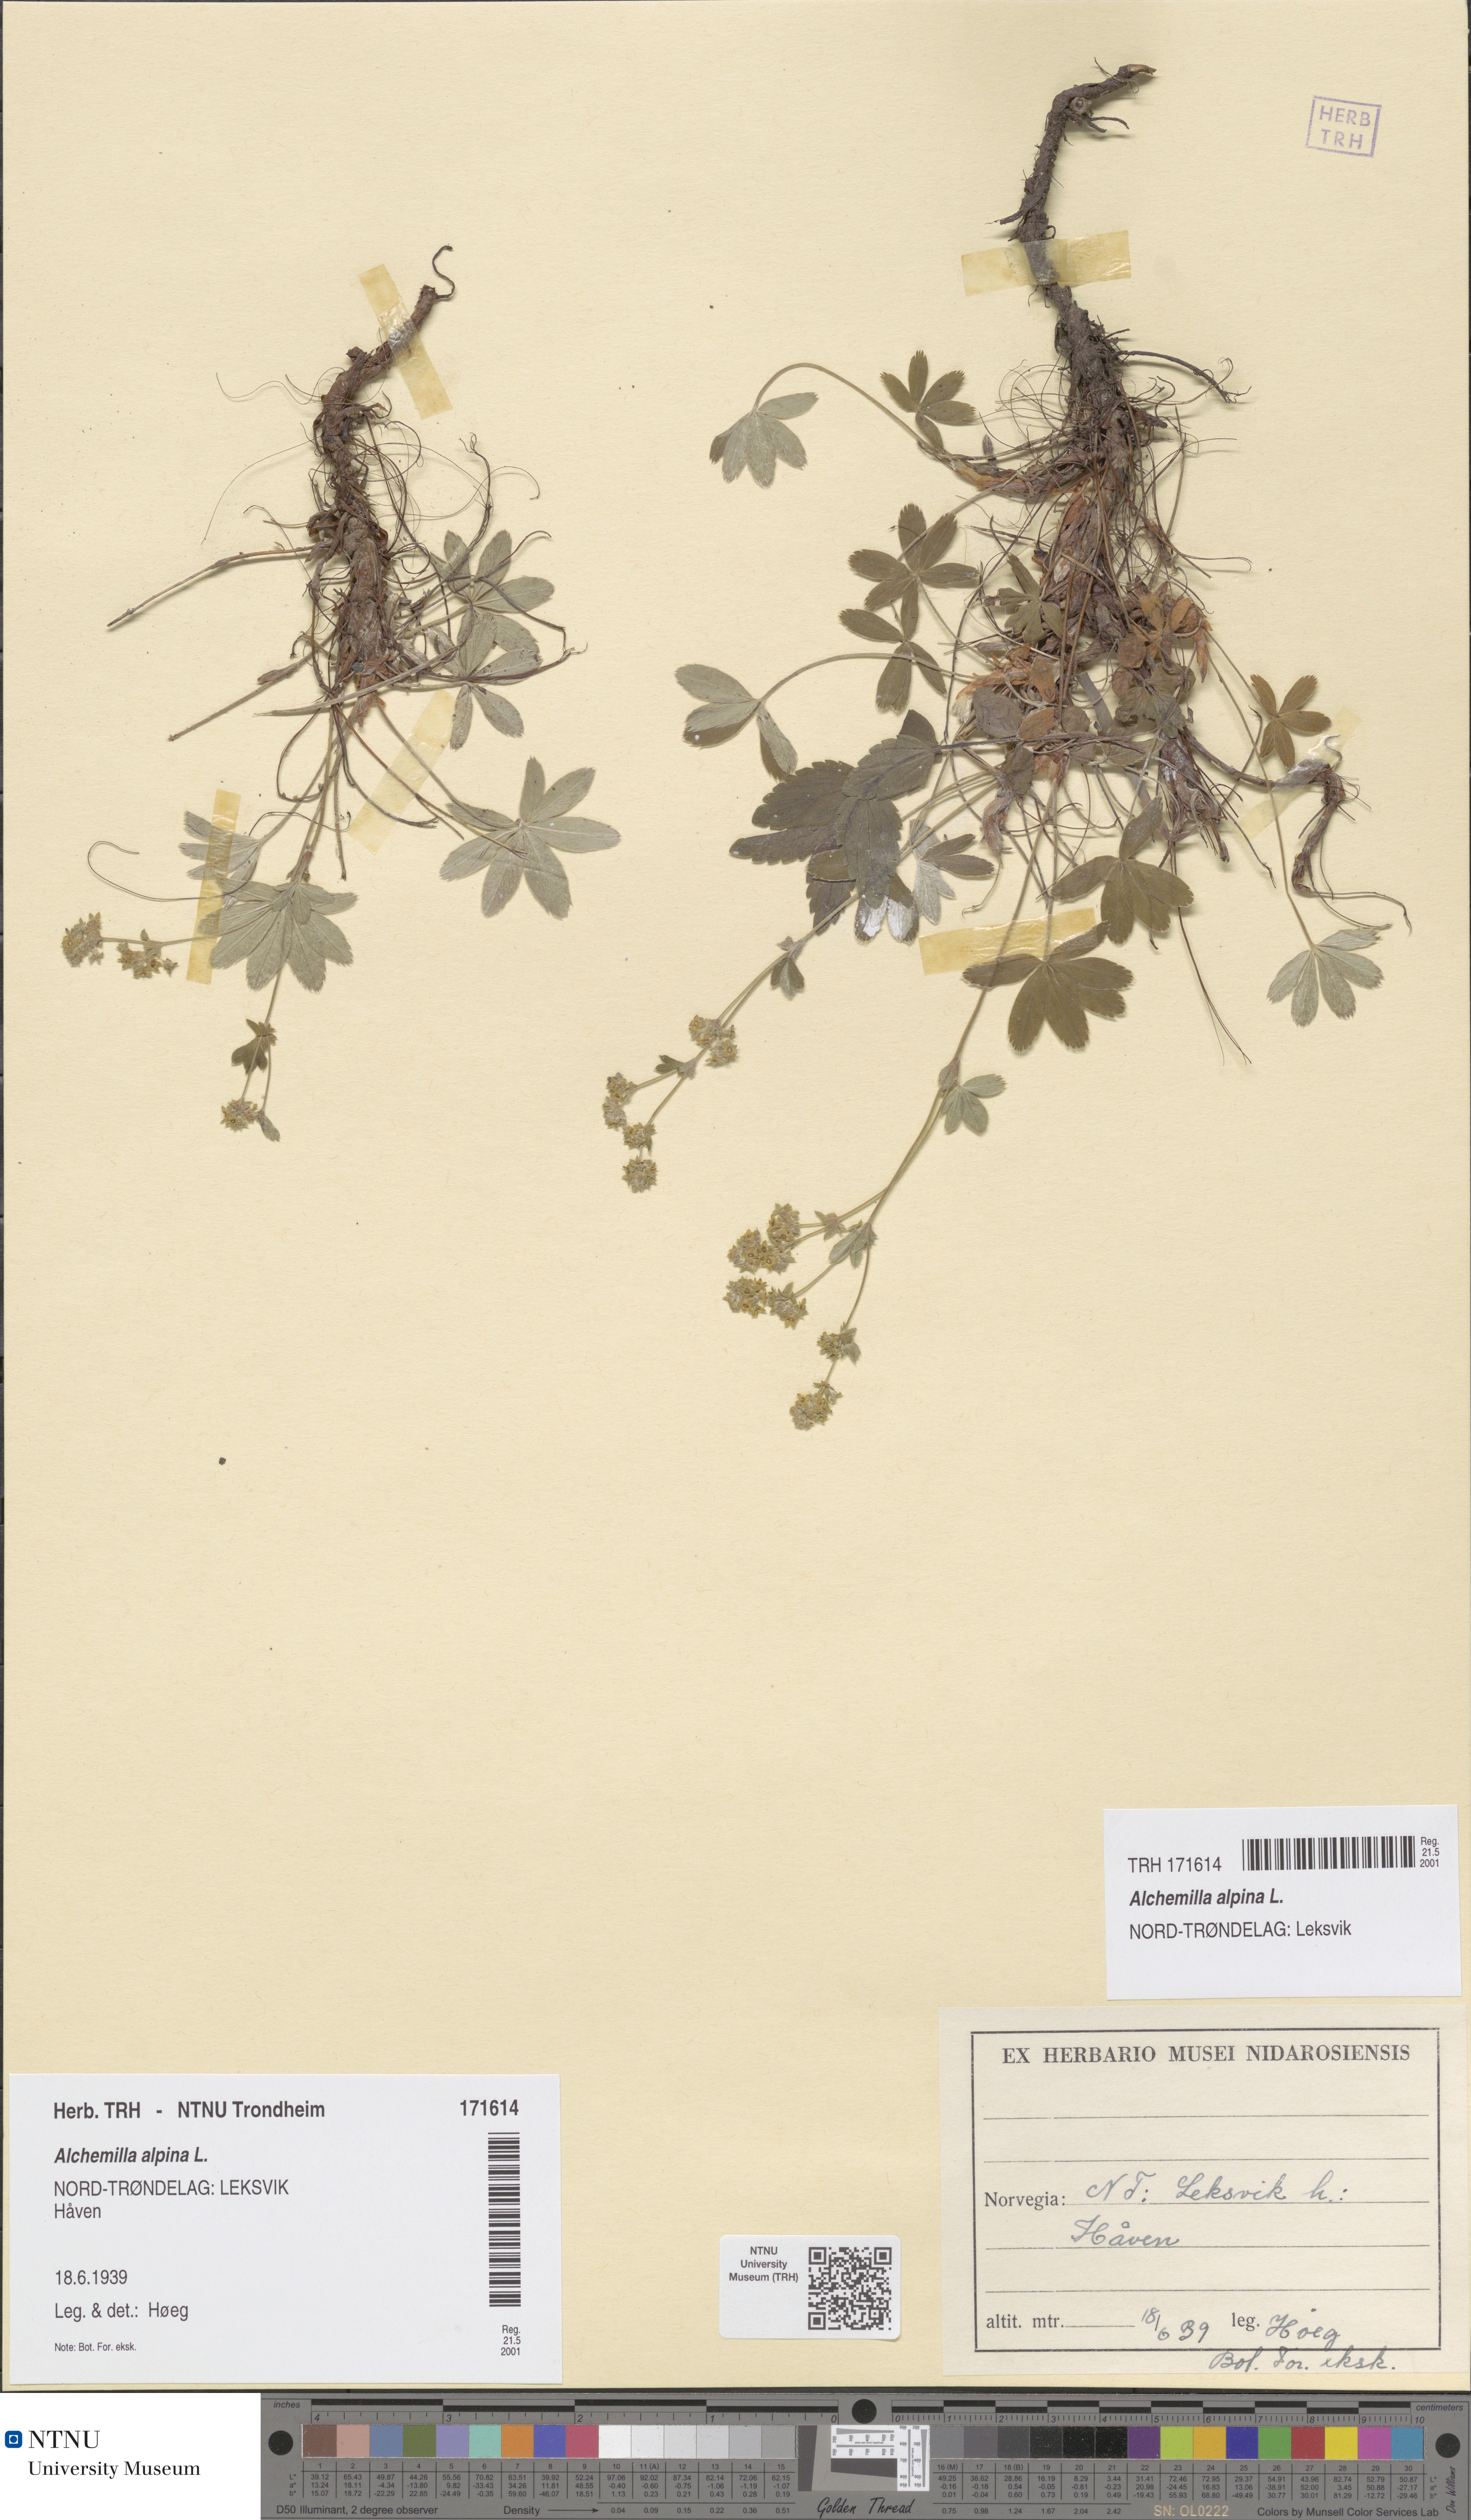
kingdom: Plantae
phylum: Tracheophyta
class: Magnoliopsida
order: Rosales
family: Rosaceae
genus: Alchemilla
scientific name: Alchemilla alpina
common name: Alpine lady's-mantle
